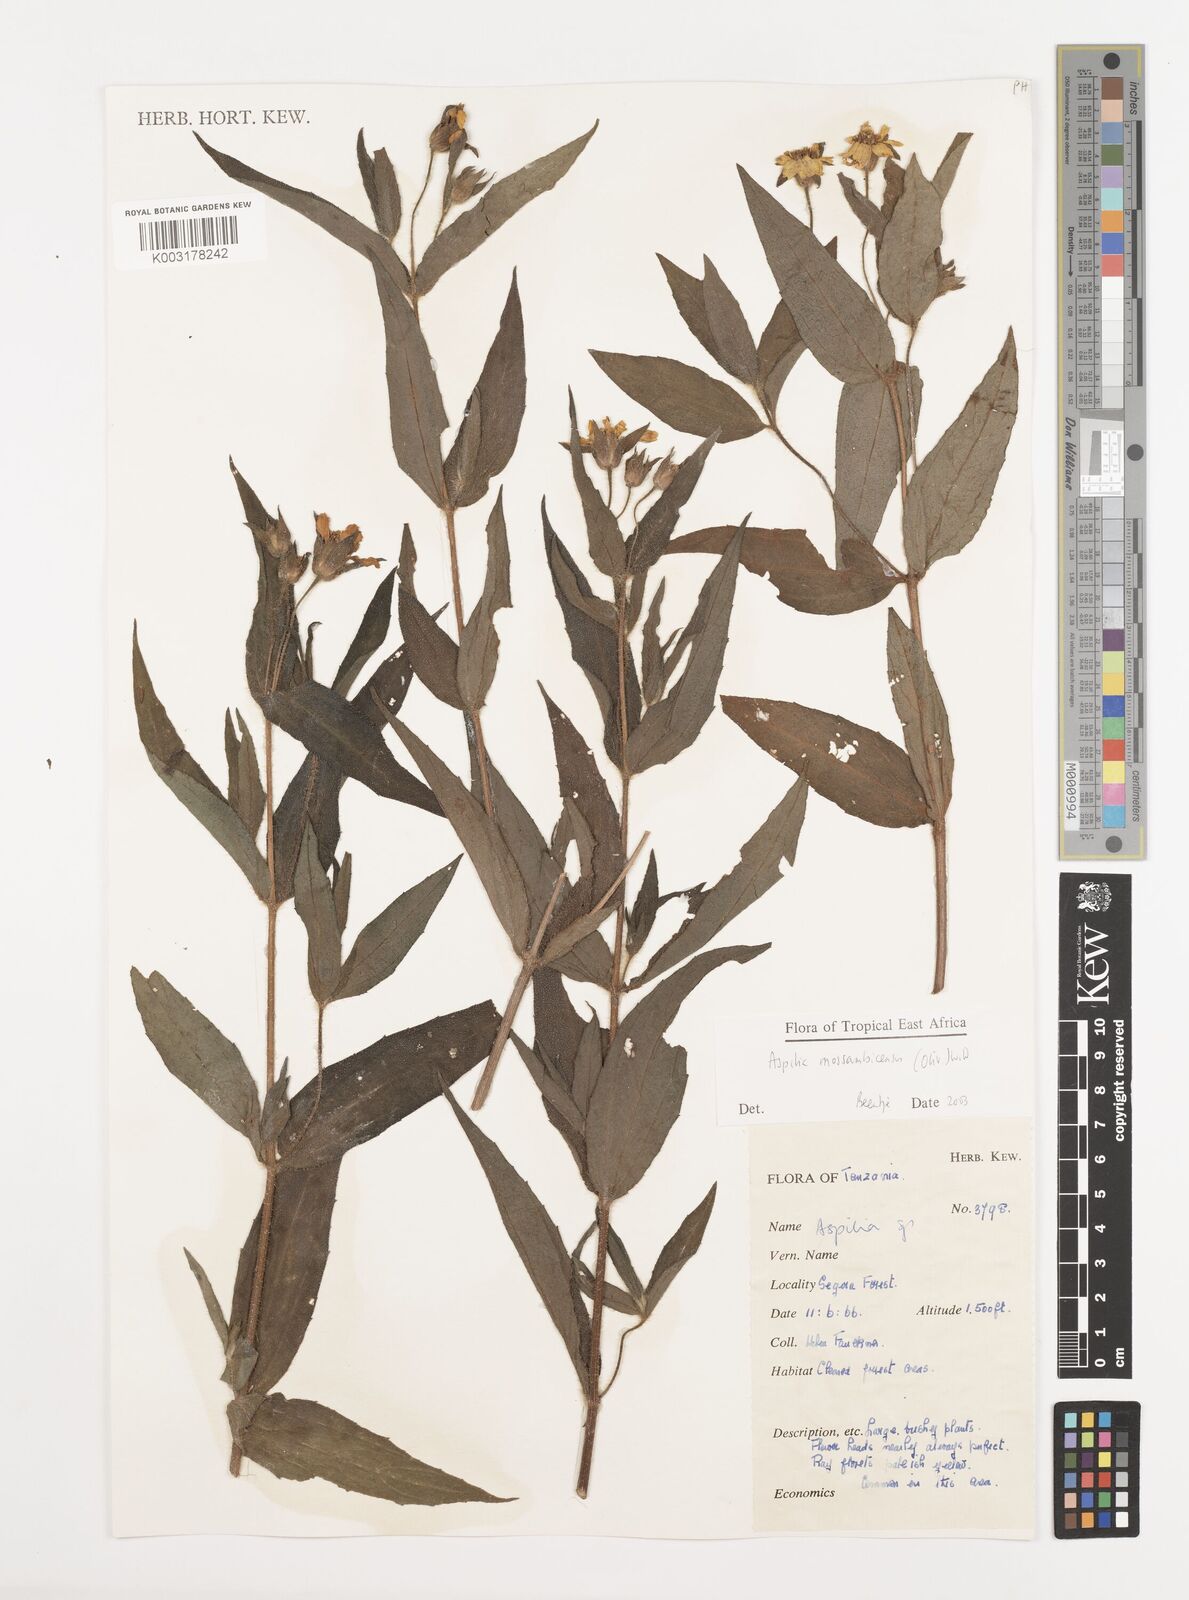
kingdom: Plantae
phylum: Tracheophyta
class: Magnoliopsida
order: Asterales
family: Asteraceae
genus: Aspilia
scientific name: Aspilia mossambicensis
